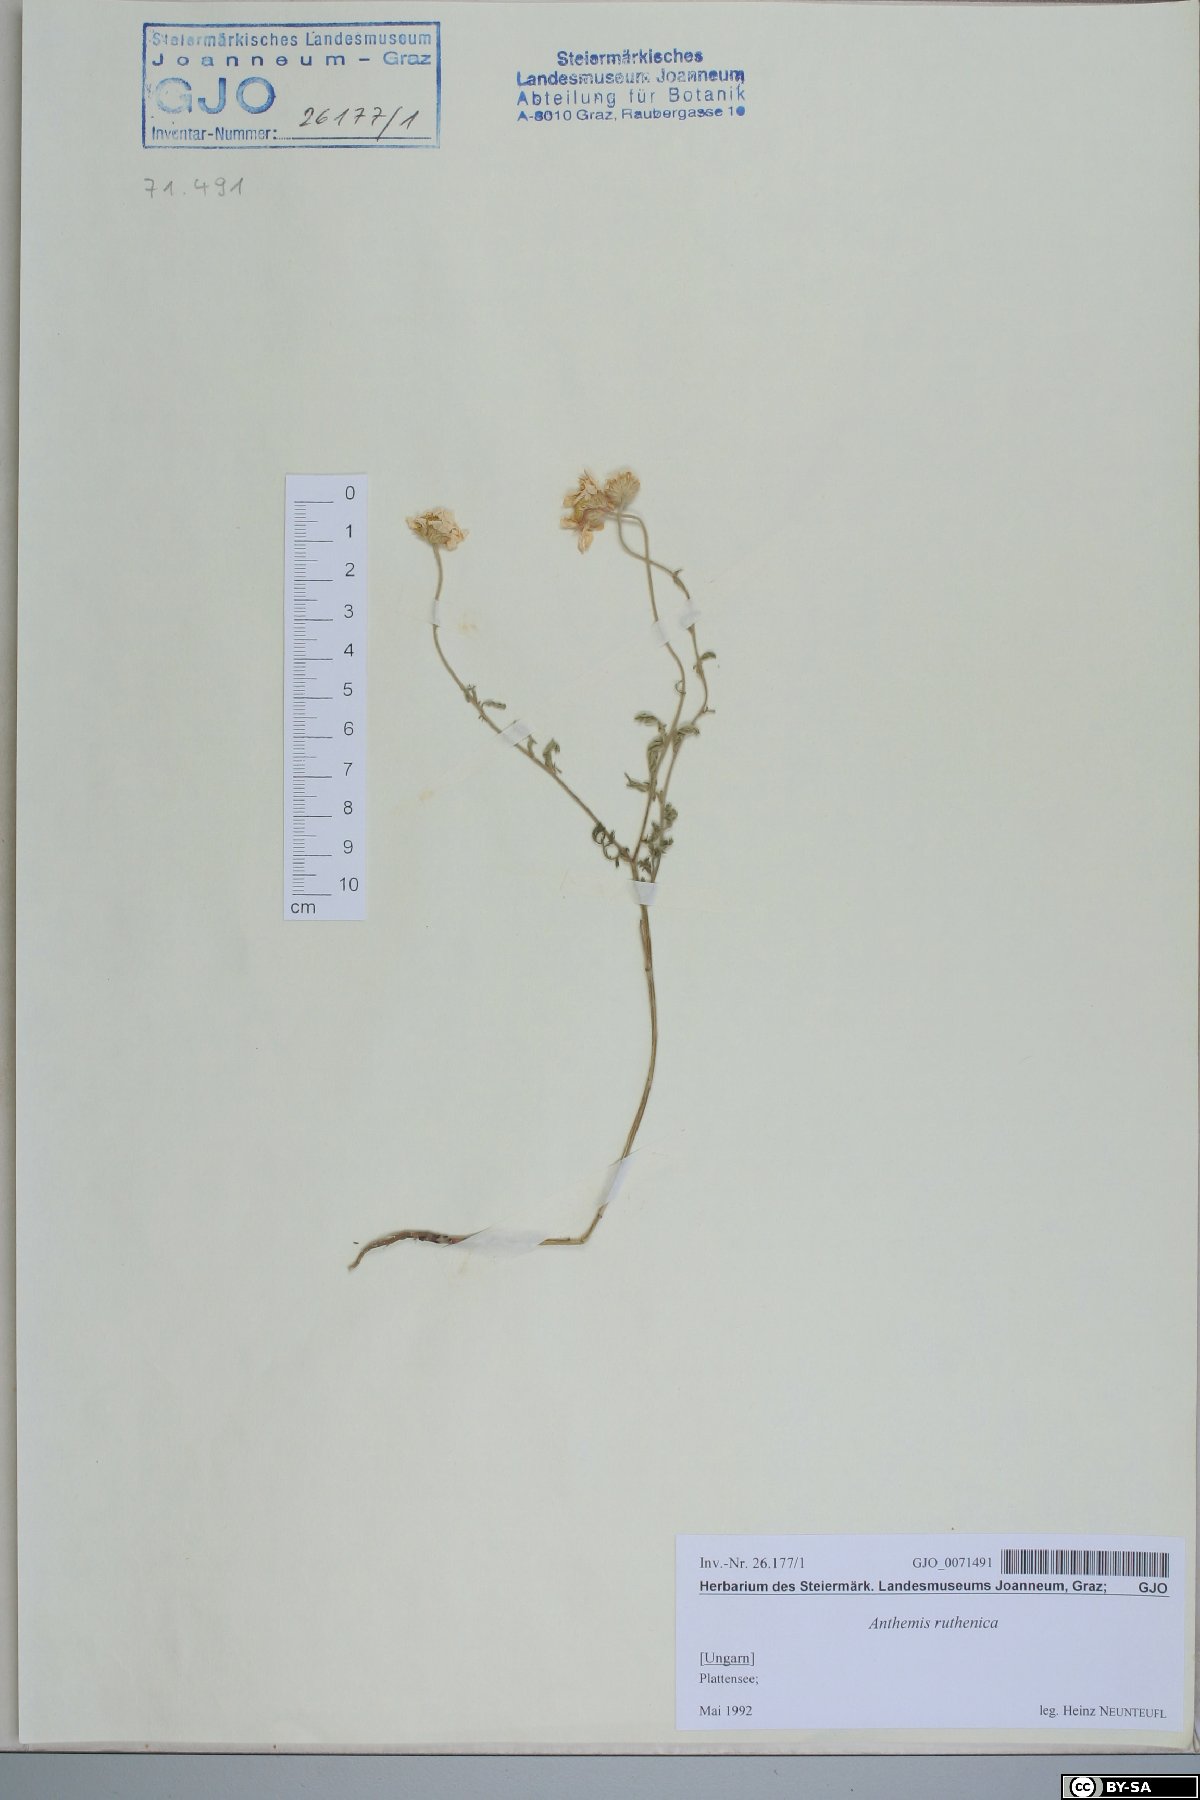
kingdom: Plantae
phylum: Tracheophyta
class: Magnoliopsida
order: Asterales
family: Asteraceae
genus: Anthemis
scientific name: Anthemis ruthenica
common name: Eastern chamomile
